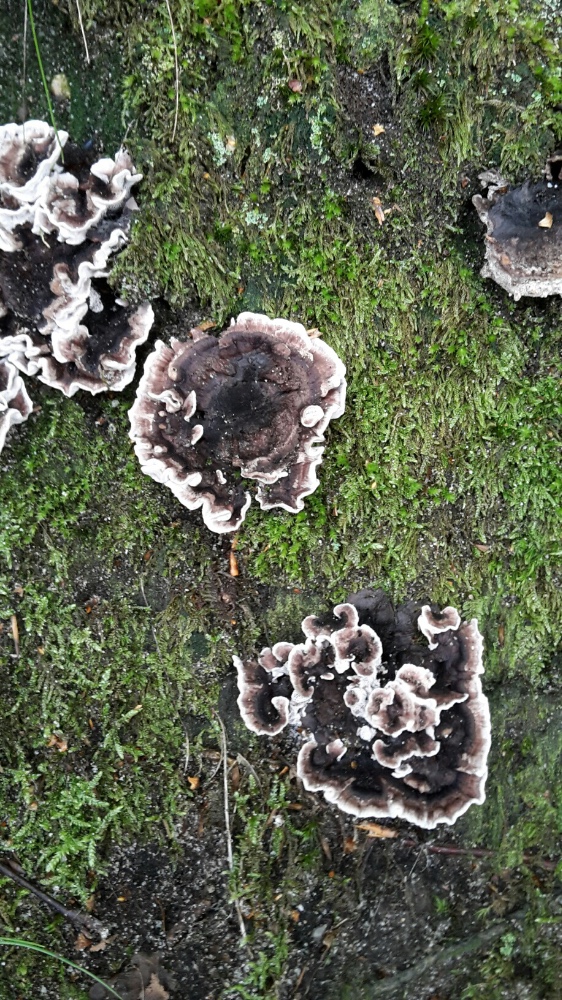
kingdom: Fungi
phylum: Basidiomycota
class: Agaricomycetes
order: Thelephorales
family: Thelephoraceae
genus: Phellodon
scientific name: Phellodon tomentosus
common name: vellugtende duftpigsvamp
